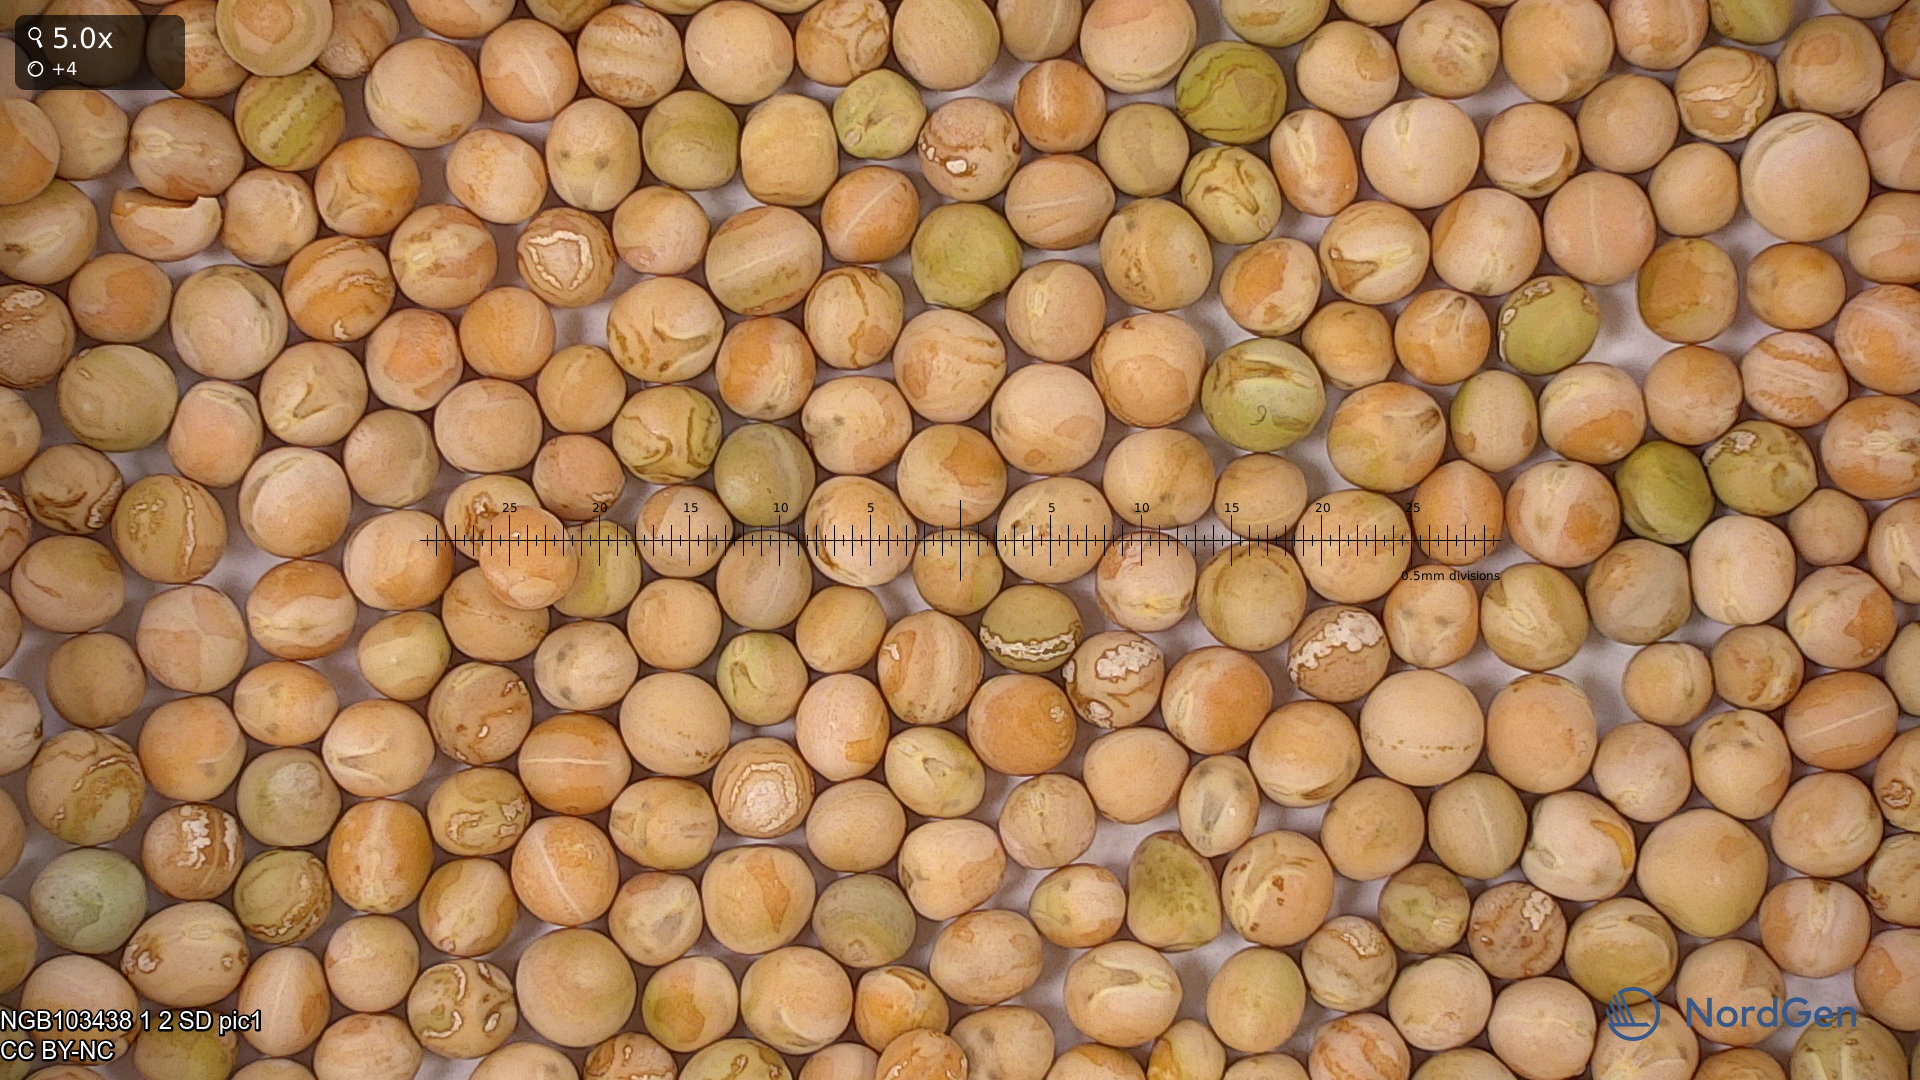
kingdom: Plantae
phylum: Tracheophyta
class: Magnoliopsida
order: Fabales
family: Fabaceae
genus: Lathyrus
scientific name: Lathyrus oleraceus
